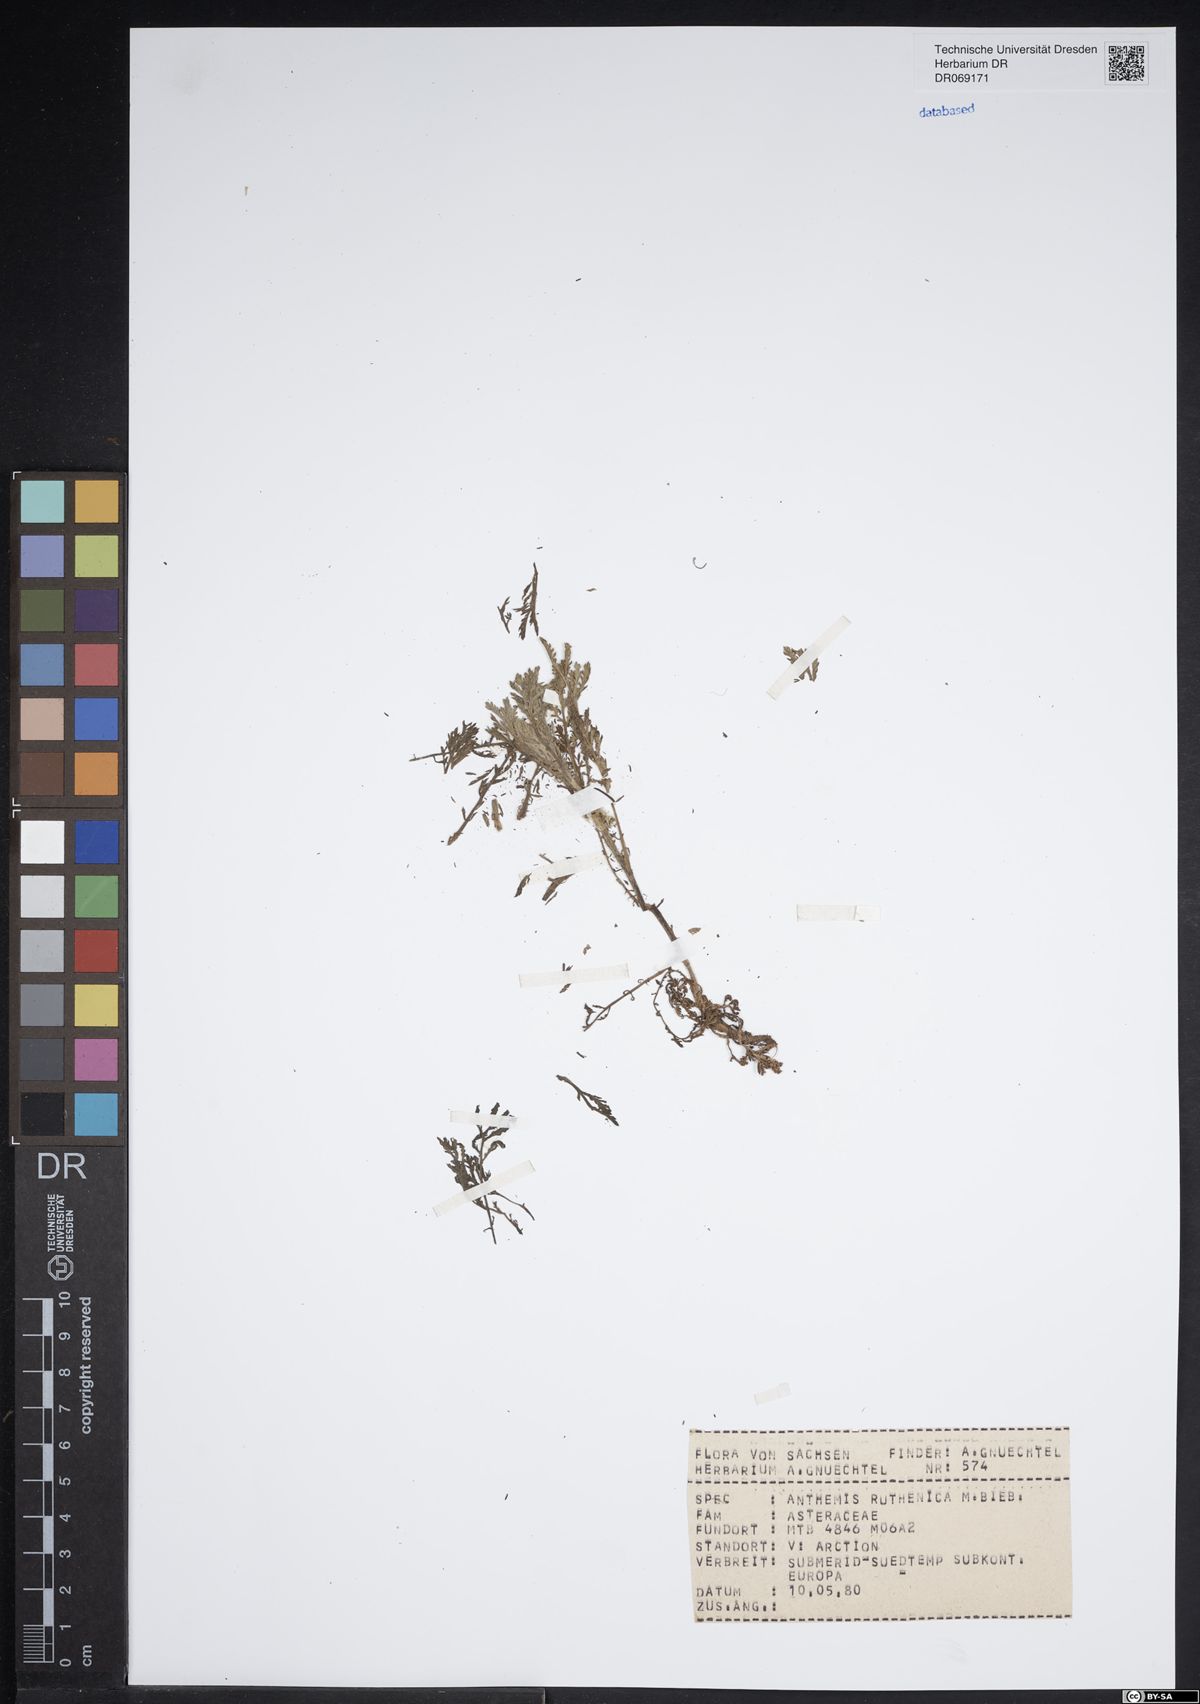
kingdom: Plantae
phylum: Tracheophyta
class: Magnoliopsida
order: Asterales
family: Asteraceae
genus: Anthemis
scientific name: Anthemis ruthenica
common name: Eastern chamomile
